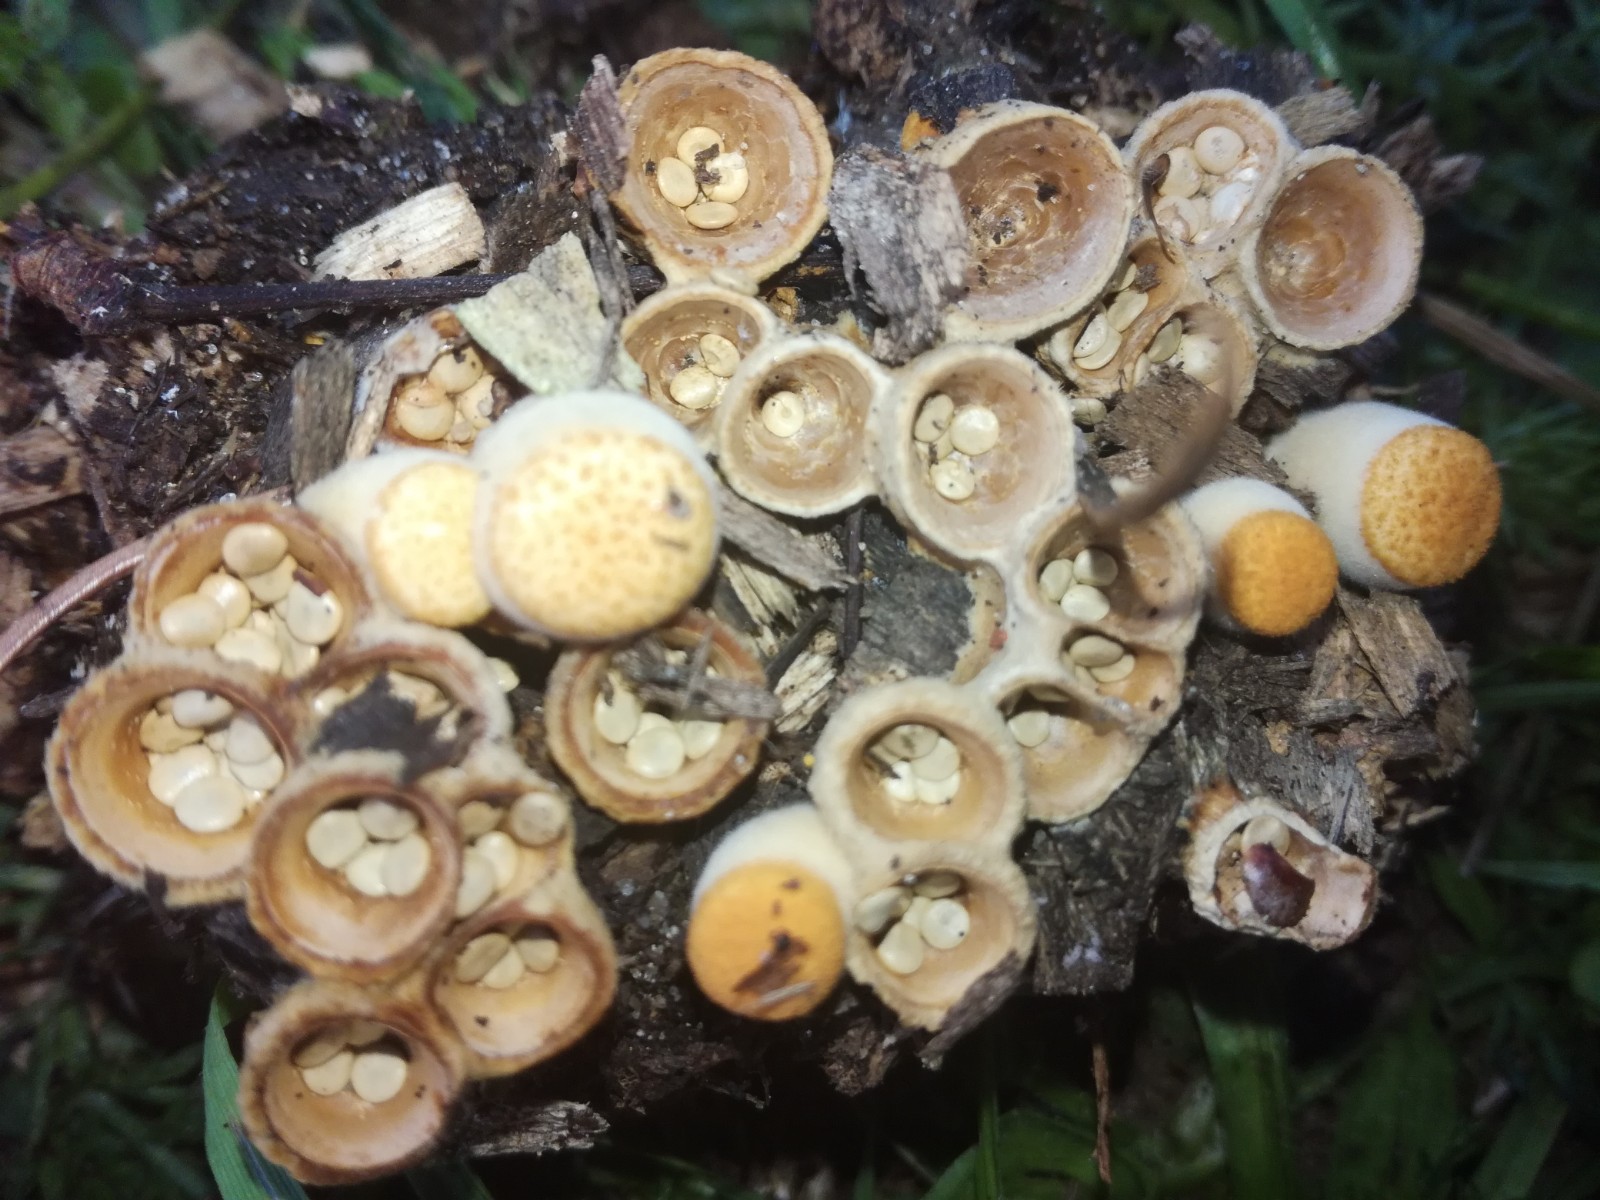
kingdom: Fungi
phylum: Basidiomycota
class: Agaricomycetes
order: Agaricales
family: Nidulariaceae
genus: Crucibulum
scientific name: Crucibulum crucibuliforme
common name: krukkesvamp
